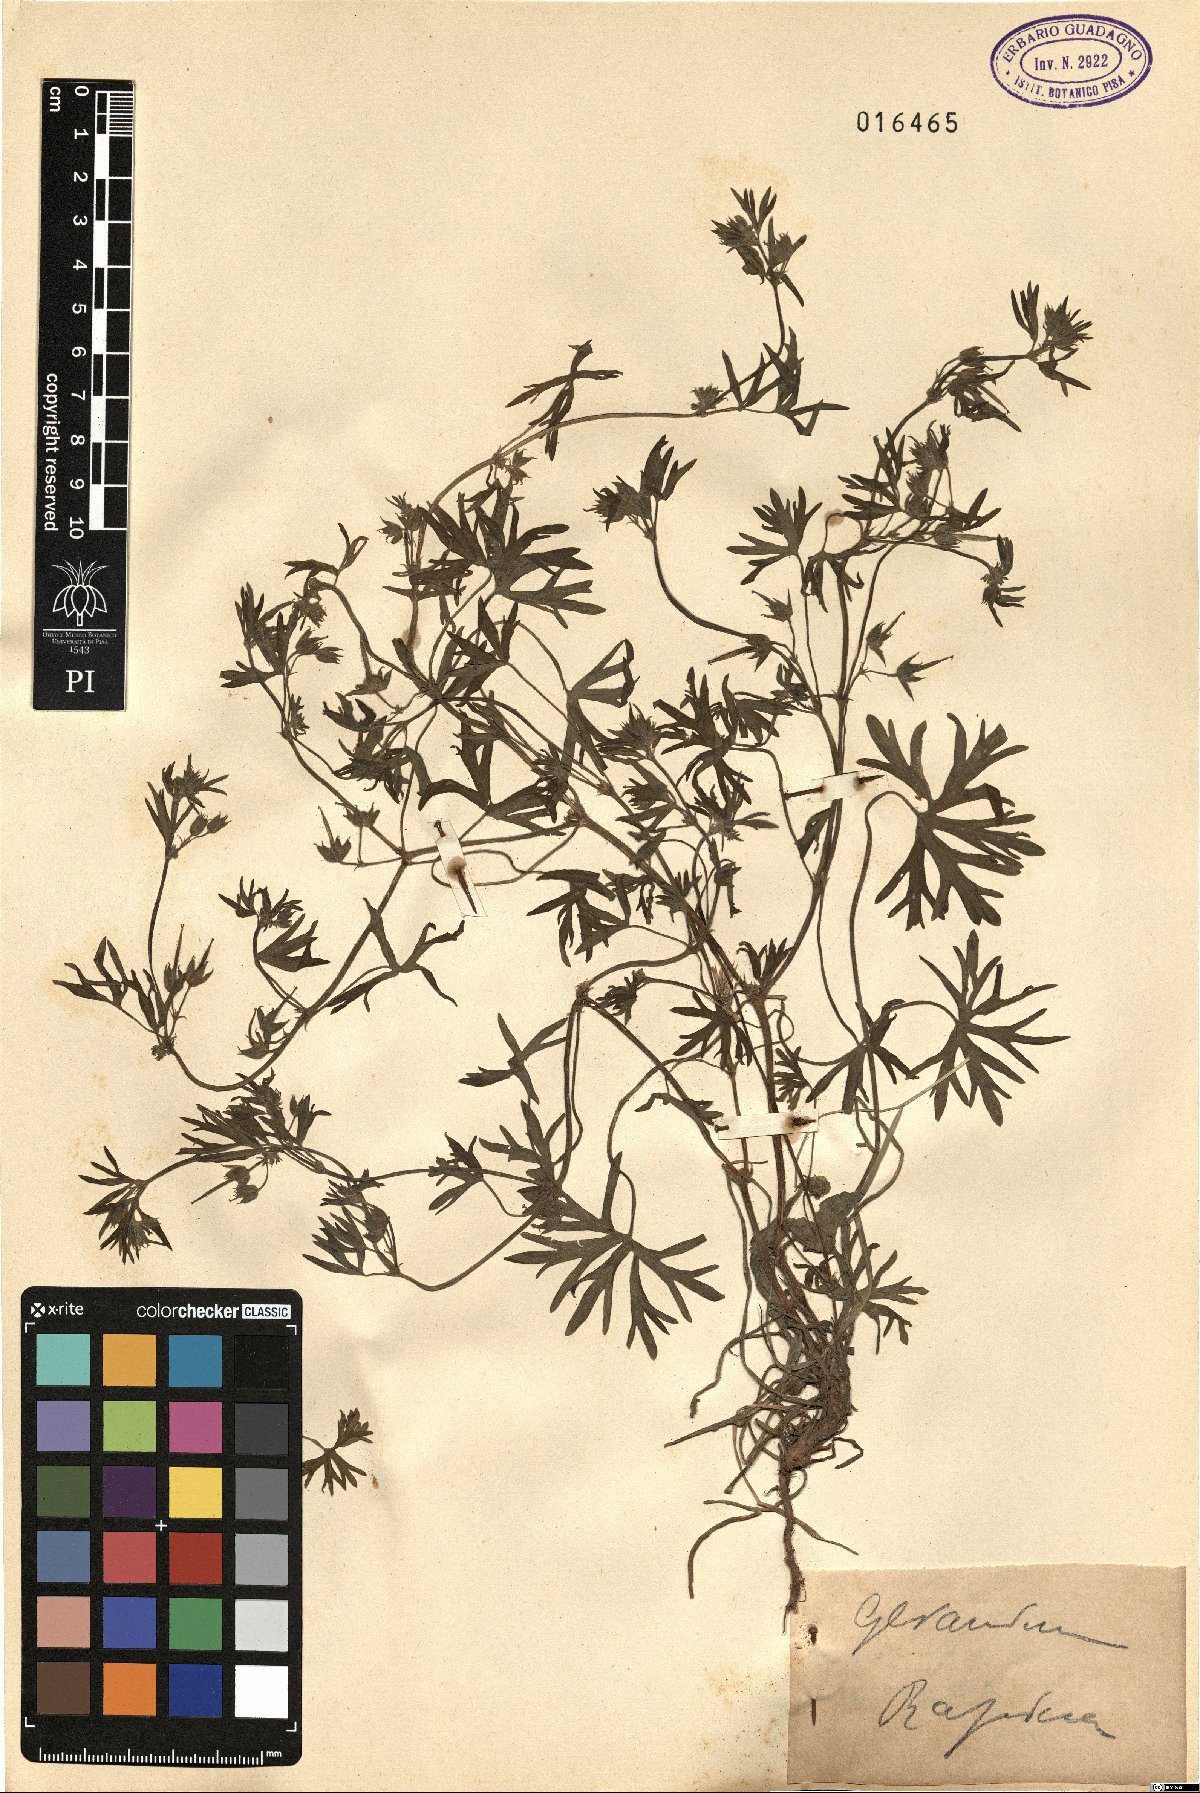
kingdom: Plantae
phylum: Tracheophyta
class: Magnoliopsida
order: Geraniales
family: Geraniaceae
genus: Geranium
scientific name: Geranium
